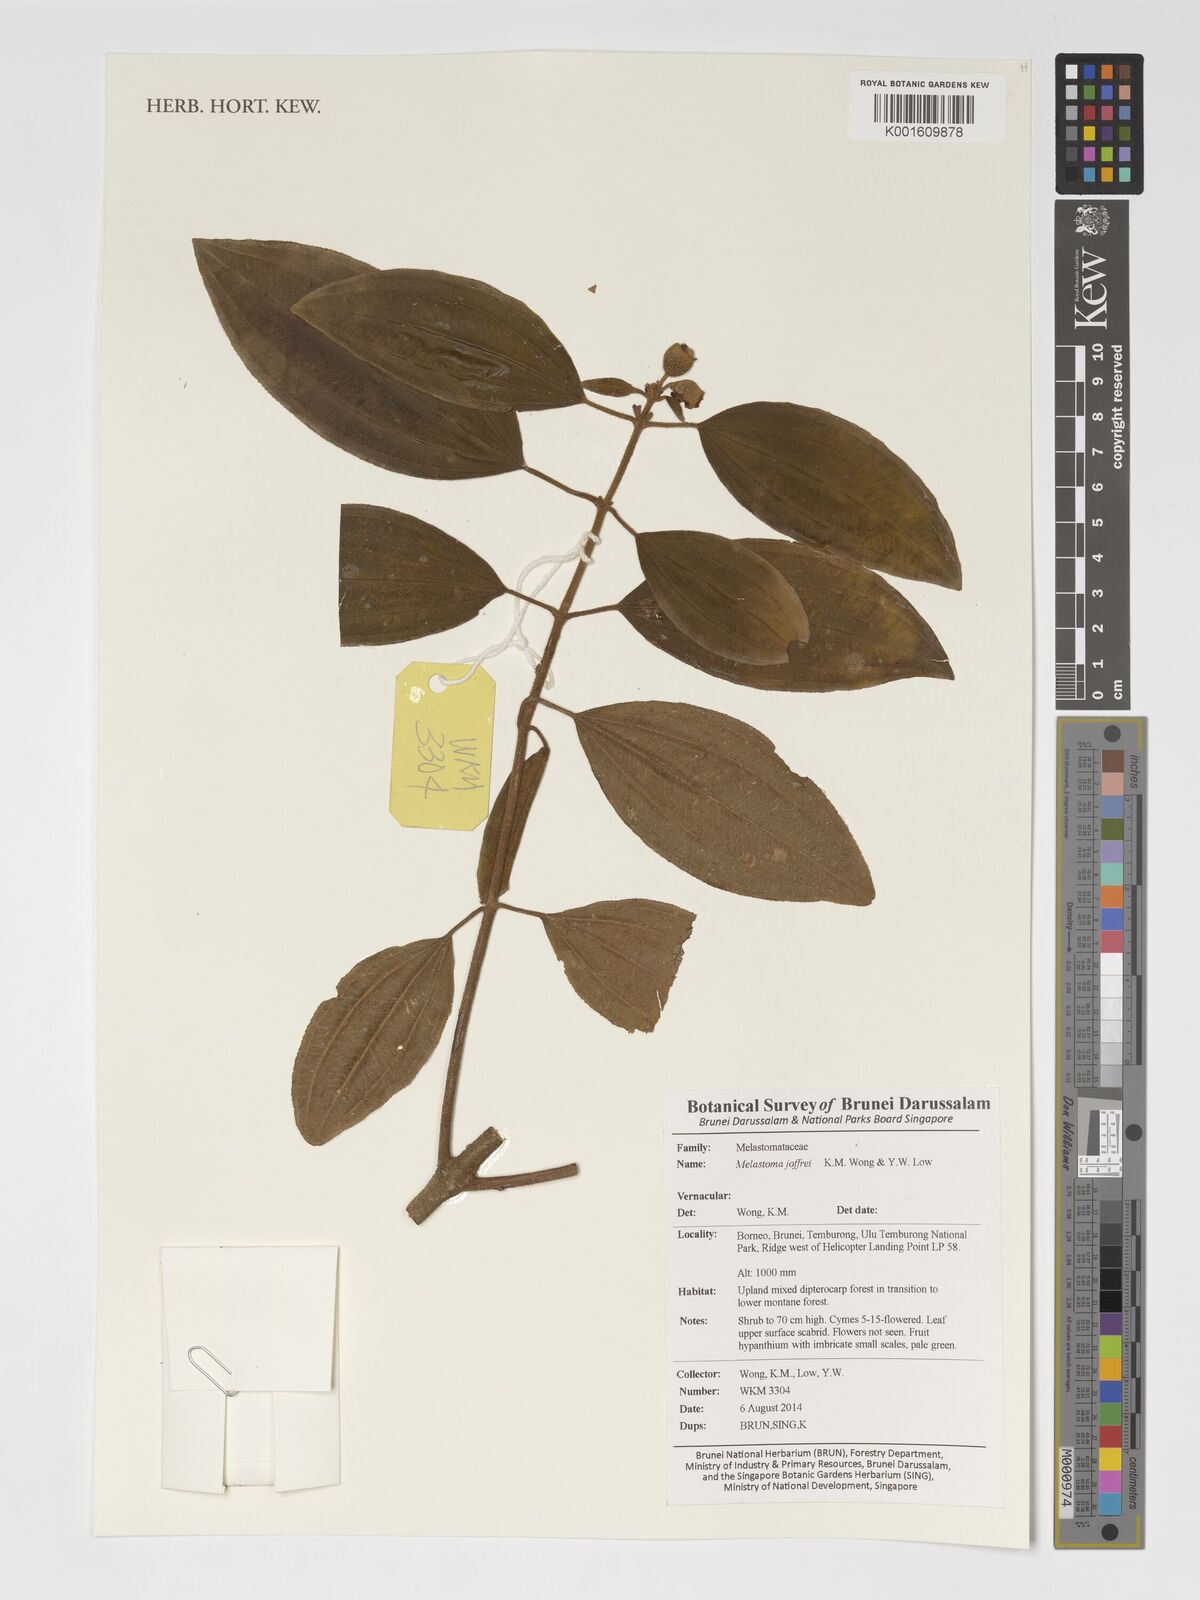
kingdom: Plantae
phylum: Tracheophyta
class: Magnoliopsida
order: Myrtales
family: Melastomataceae
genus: Melastoma
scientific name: Melastoma joffrei
